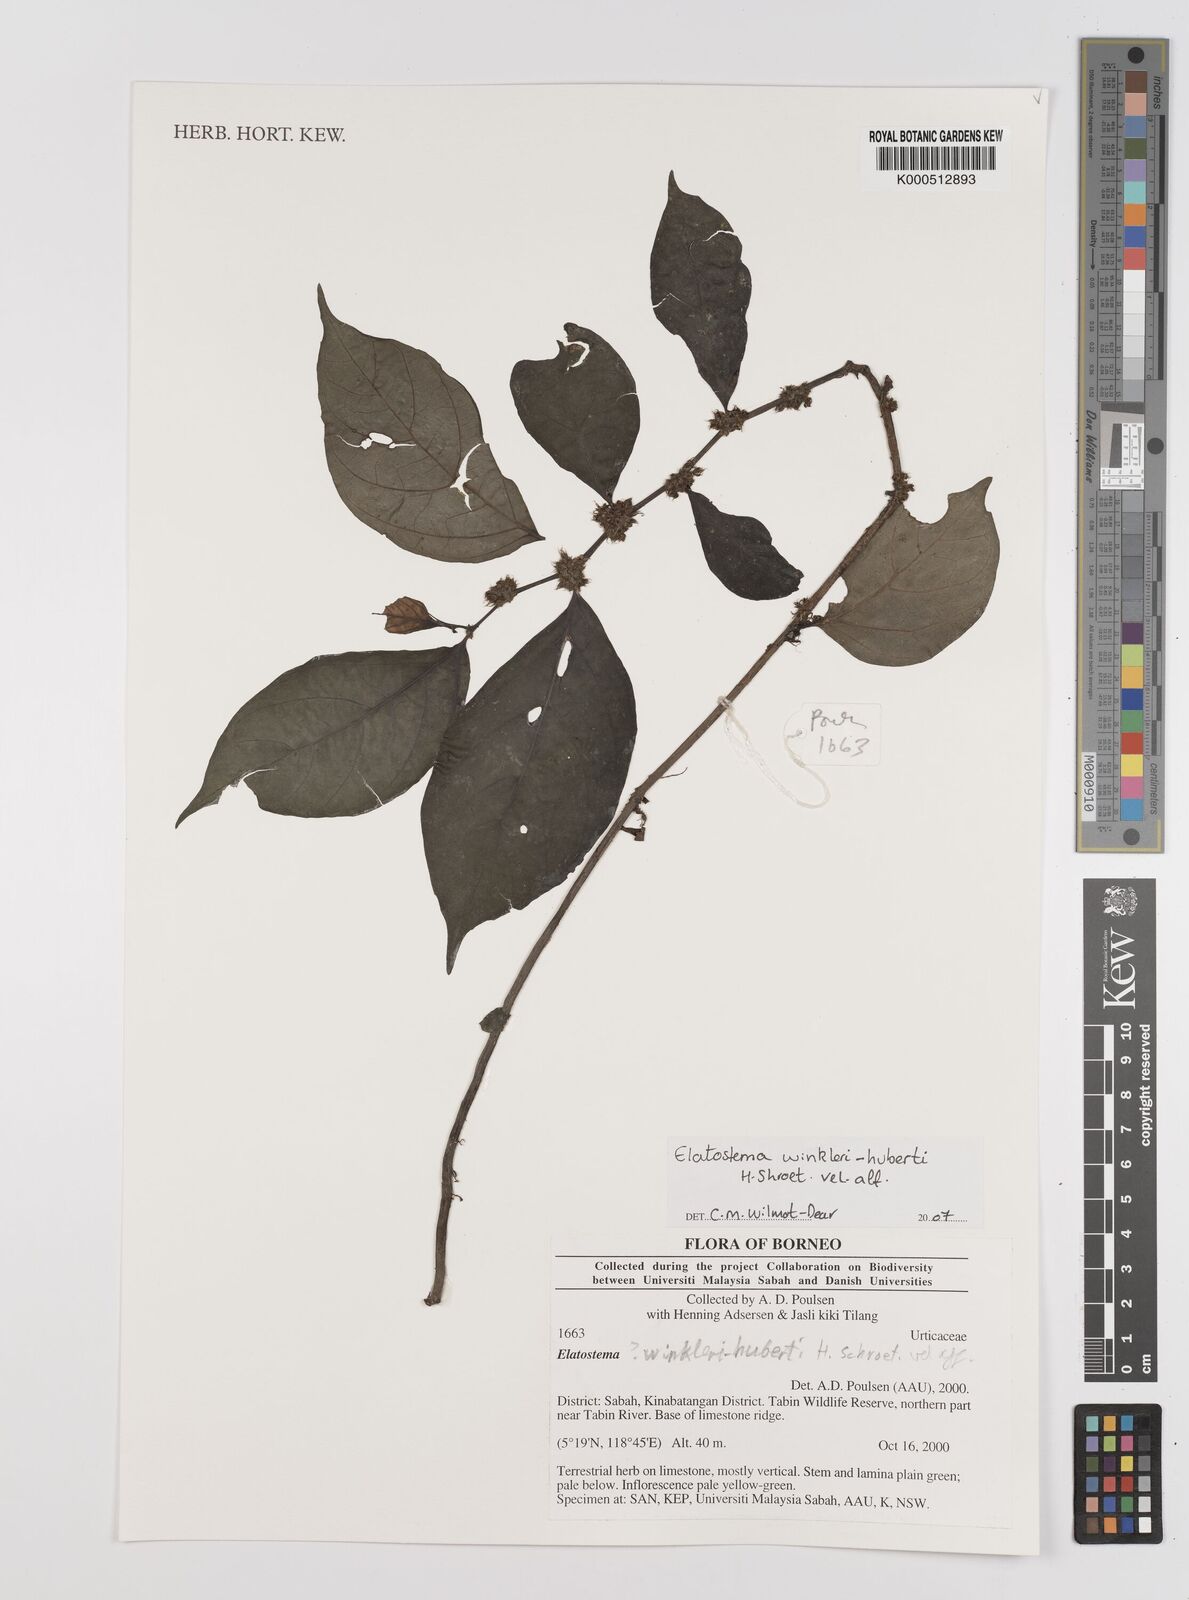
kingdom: Plantae
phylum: Tracheophyta
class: Magnoliopsida
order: Rosales
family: Urticaceae
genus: Elatostema
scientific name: Elatostema
